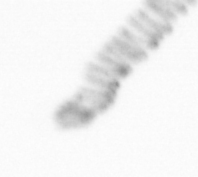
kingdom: Chromista
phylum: Ochrophyta
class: Bacillariophyceae
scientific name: Bacillariophyceae
